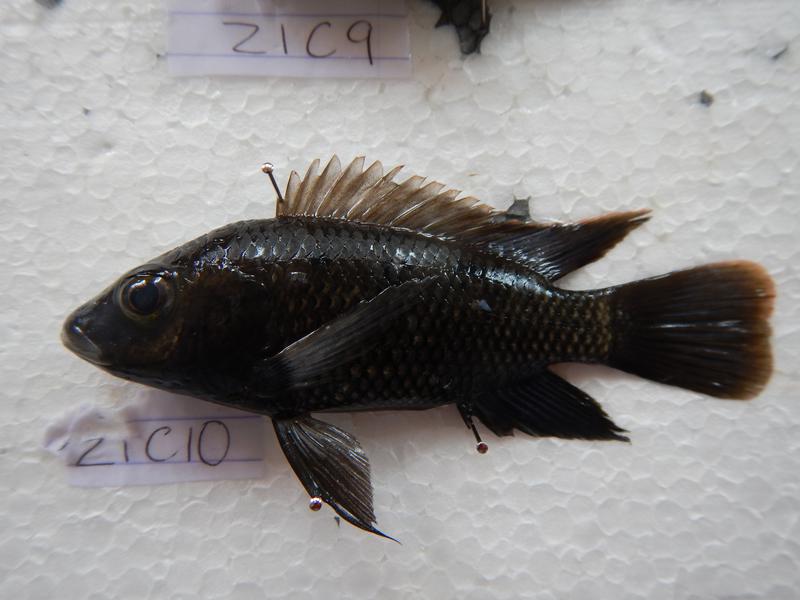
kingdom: Animalia
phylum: Chordata
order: Perciformes
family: Cichlidae
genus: Oreochromis
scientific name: Oreochromis urolepis
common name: Wami tilapia
